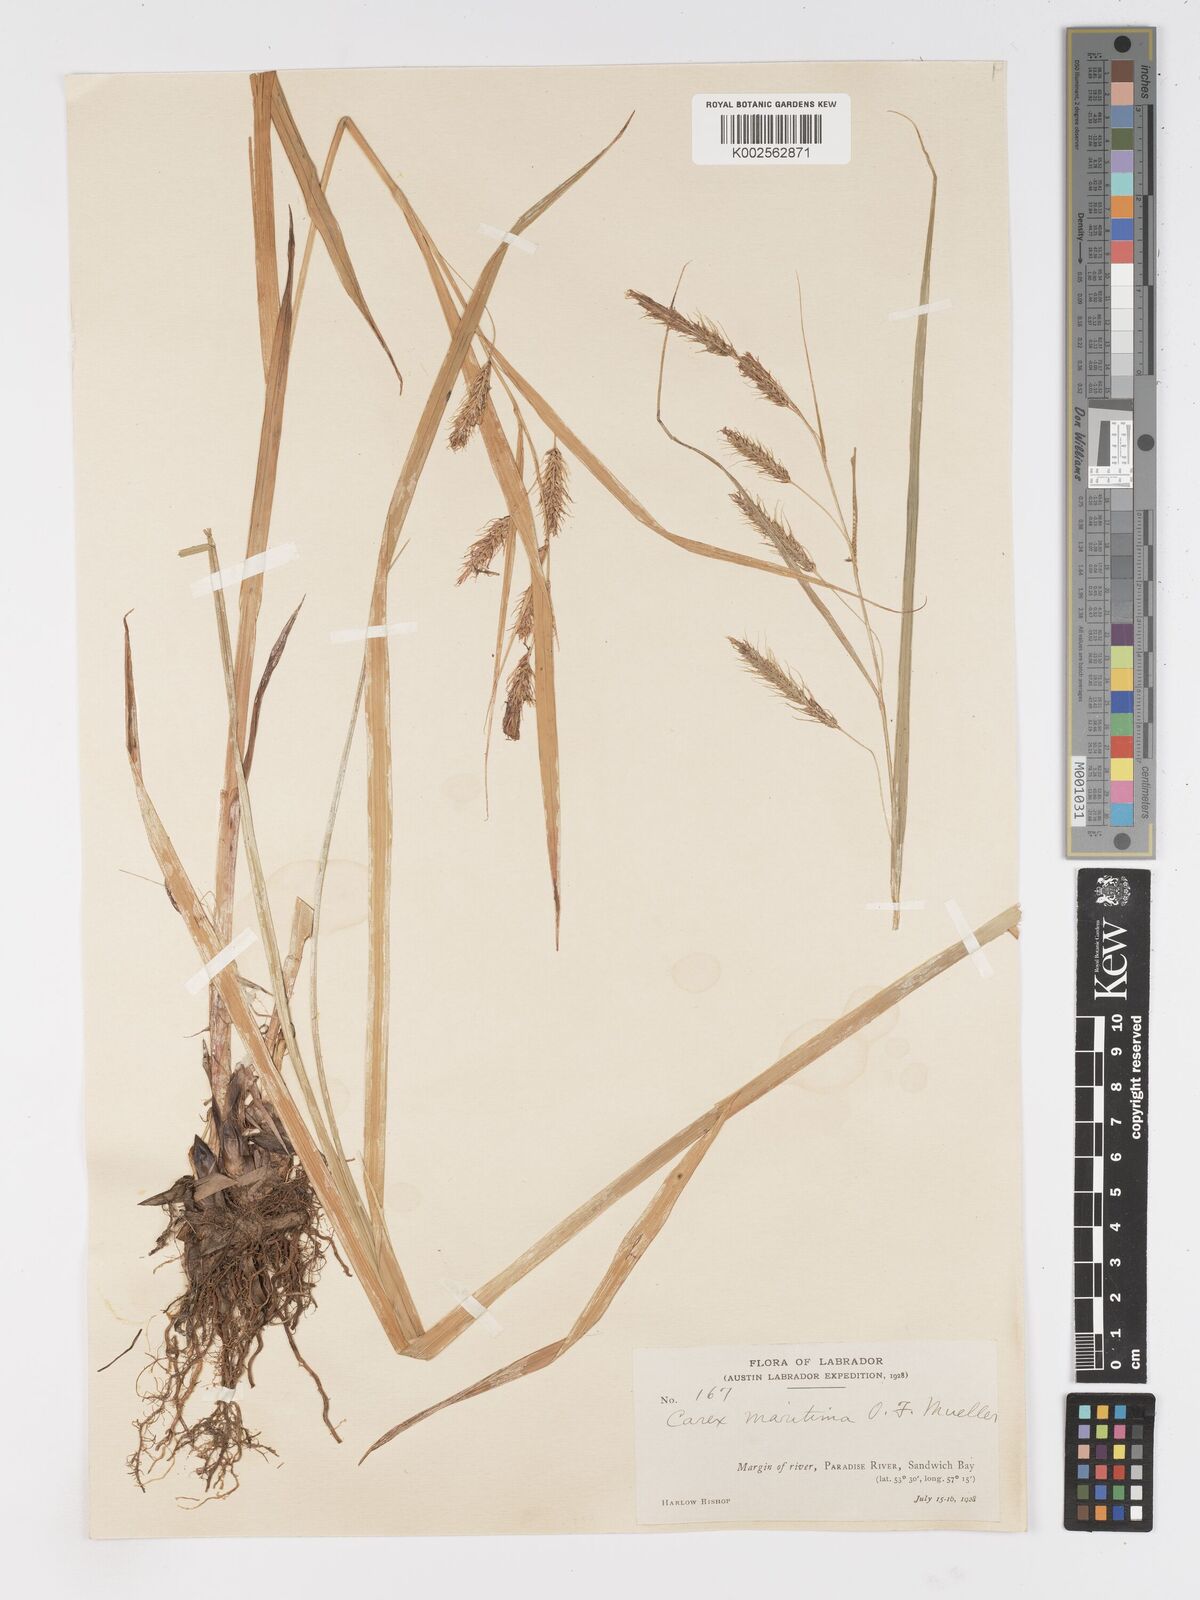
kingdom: Plantae
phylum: Tracheophyta
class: Liliopsida
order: Poales
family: Cyperaceae
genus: Carex
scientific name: Carex paleacea
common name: Chaffy sedge
